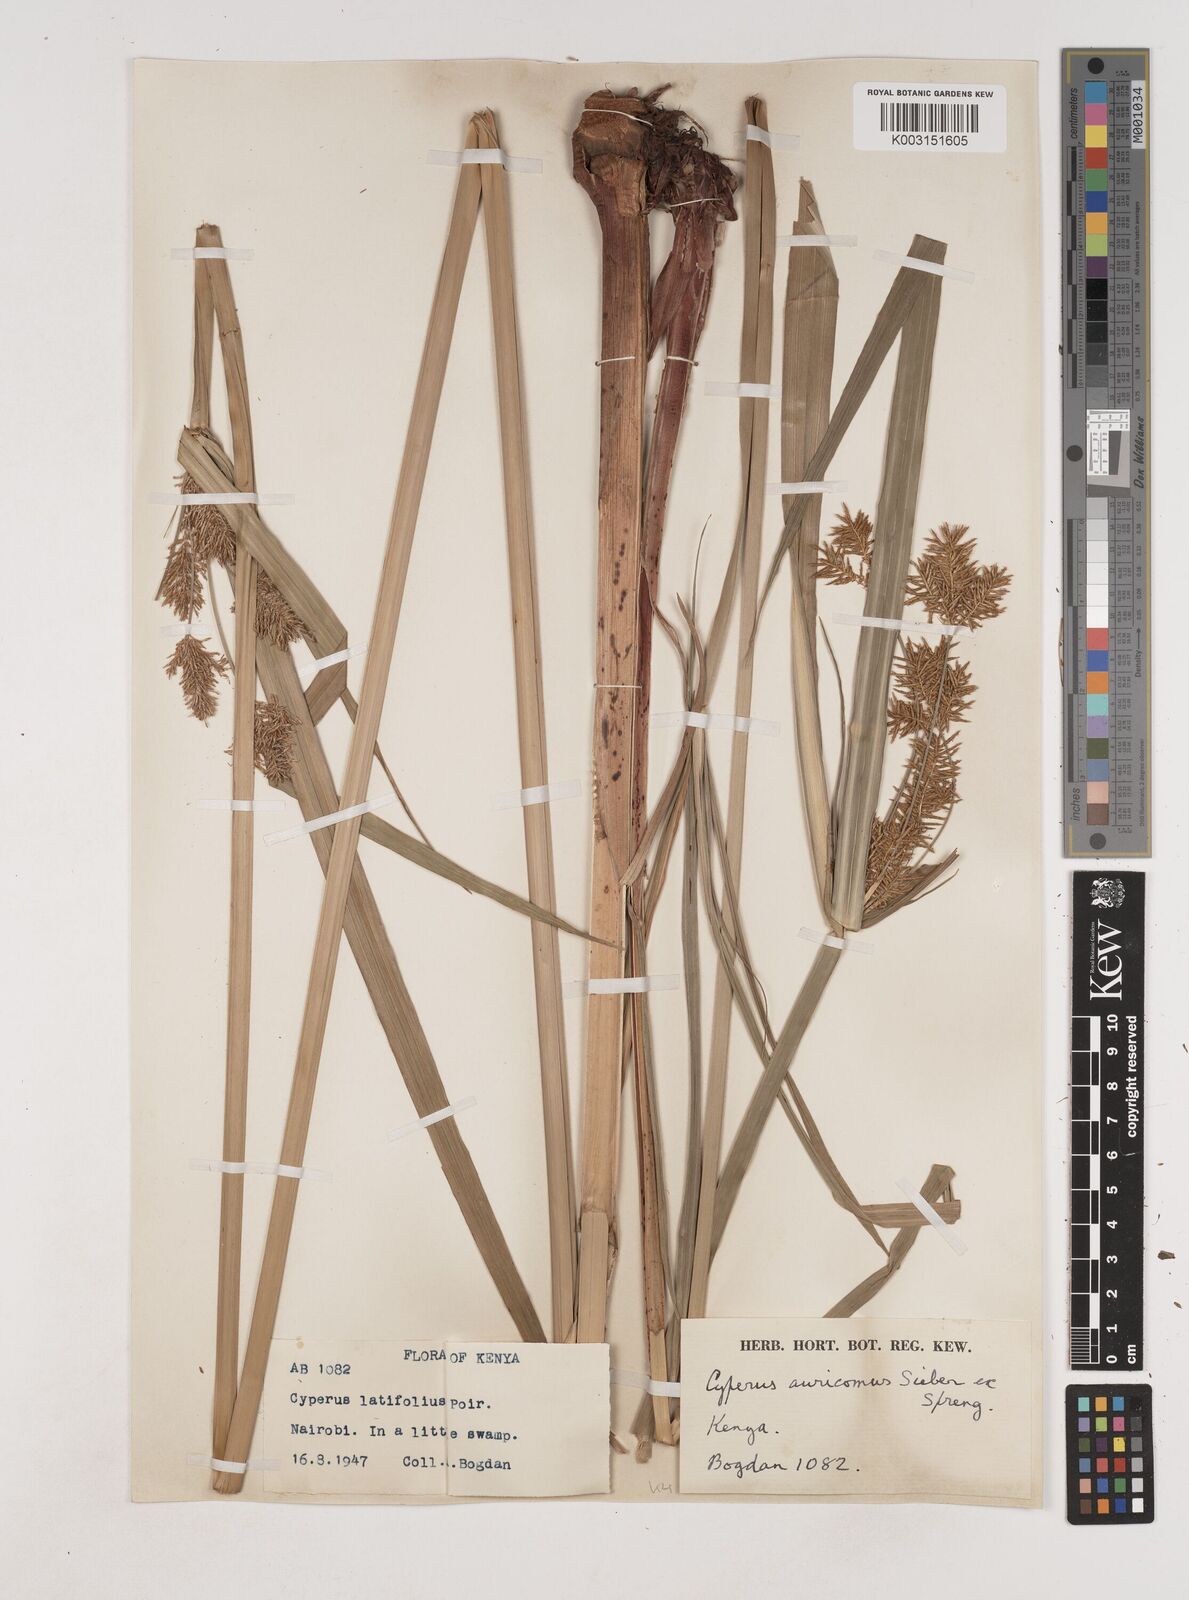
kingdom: Plantae
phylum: Tracheophyta
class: Liliopsida
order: Poales
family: Cyperaceae
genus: Cyperus
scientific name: Cyperus digitatus
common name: Finger flatsedge
